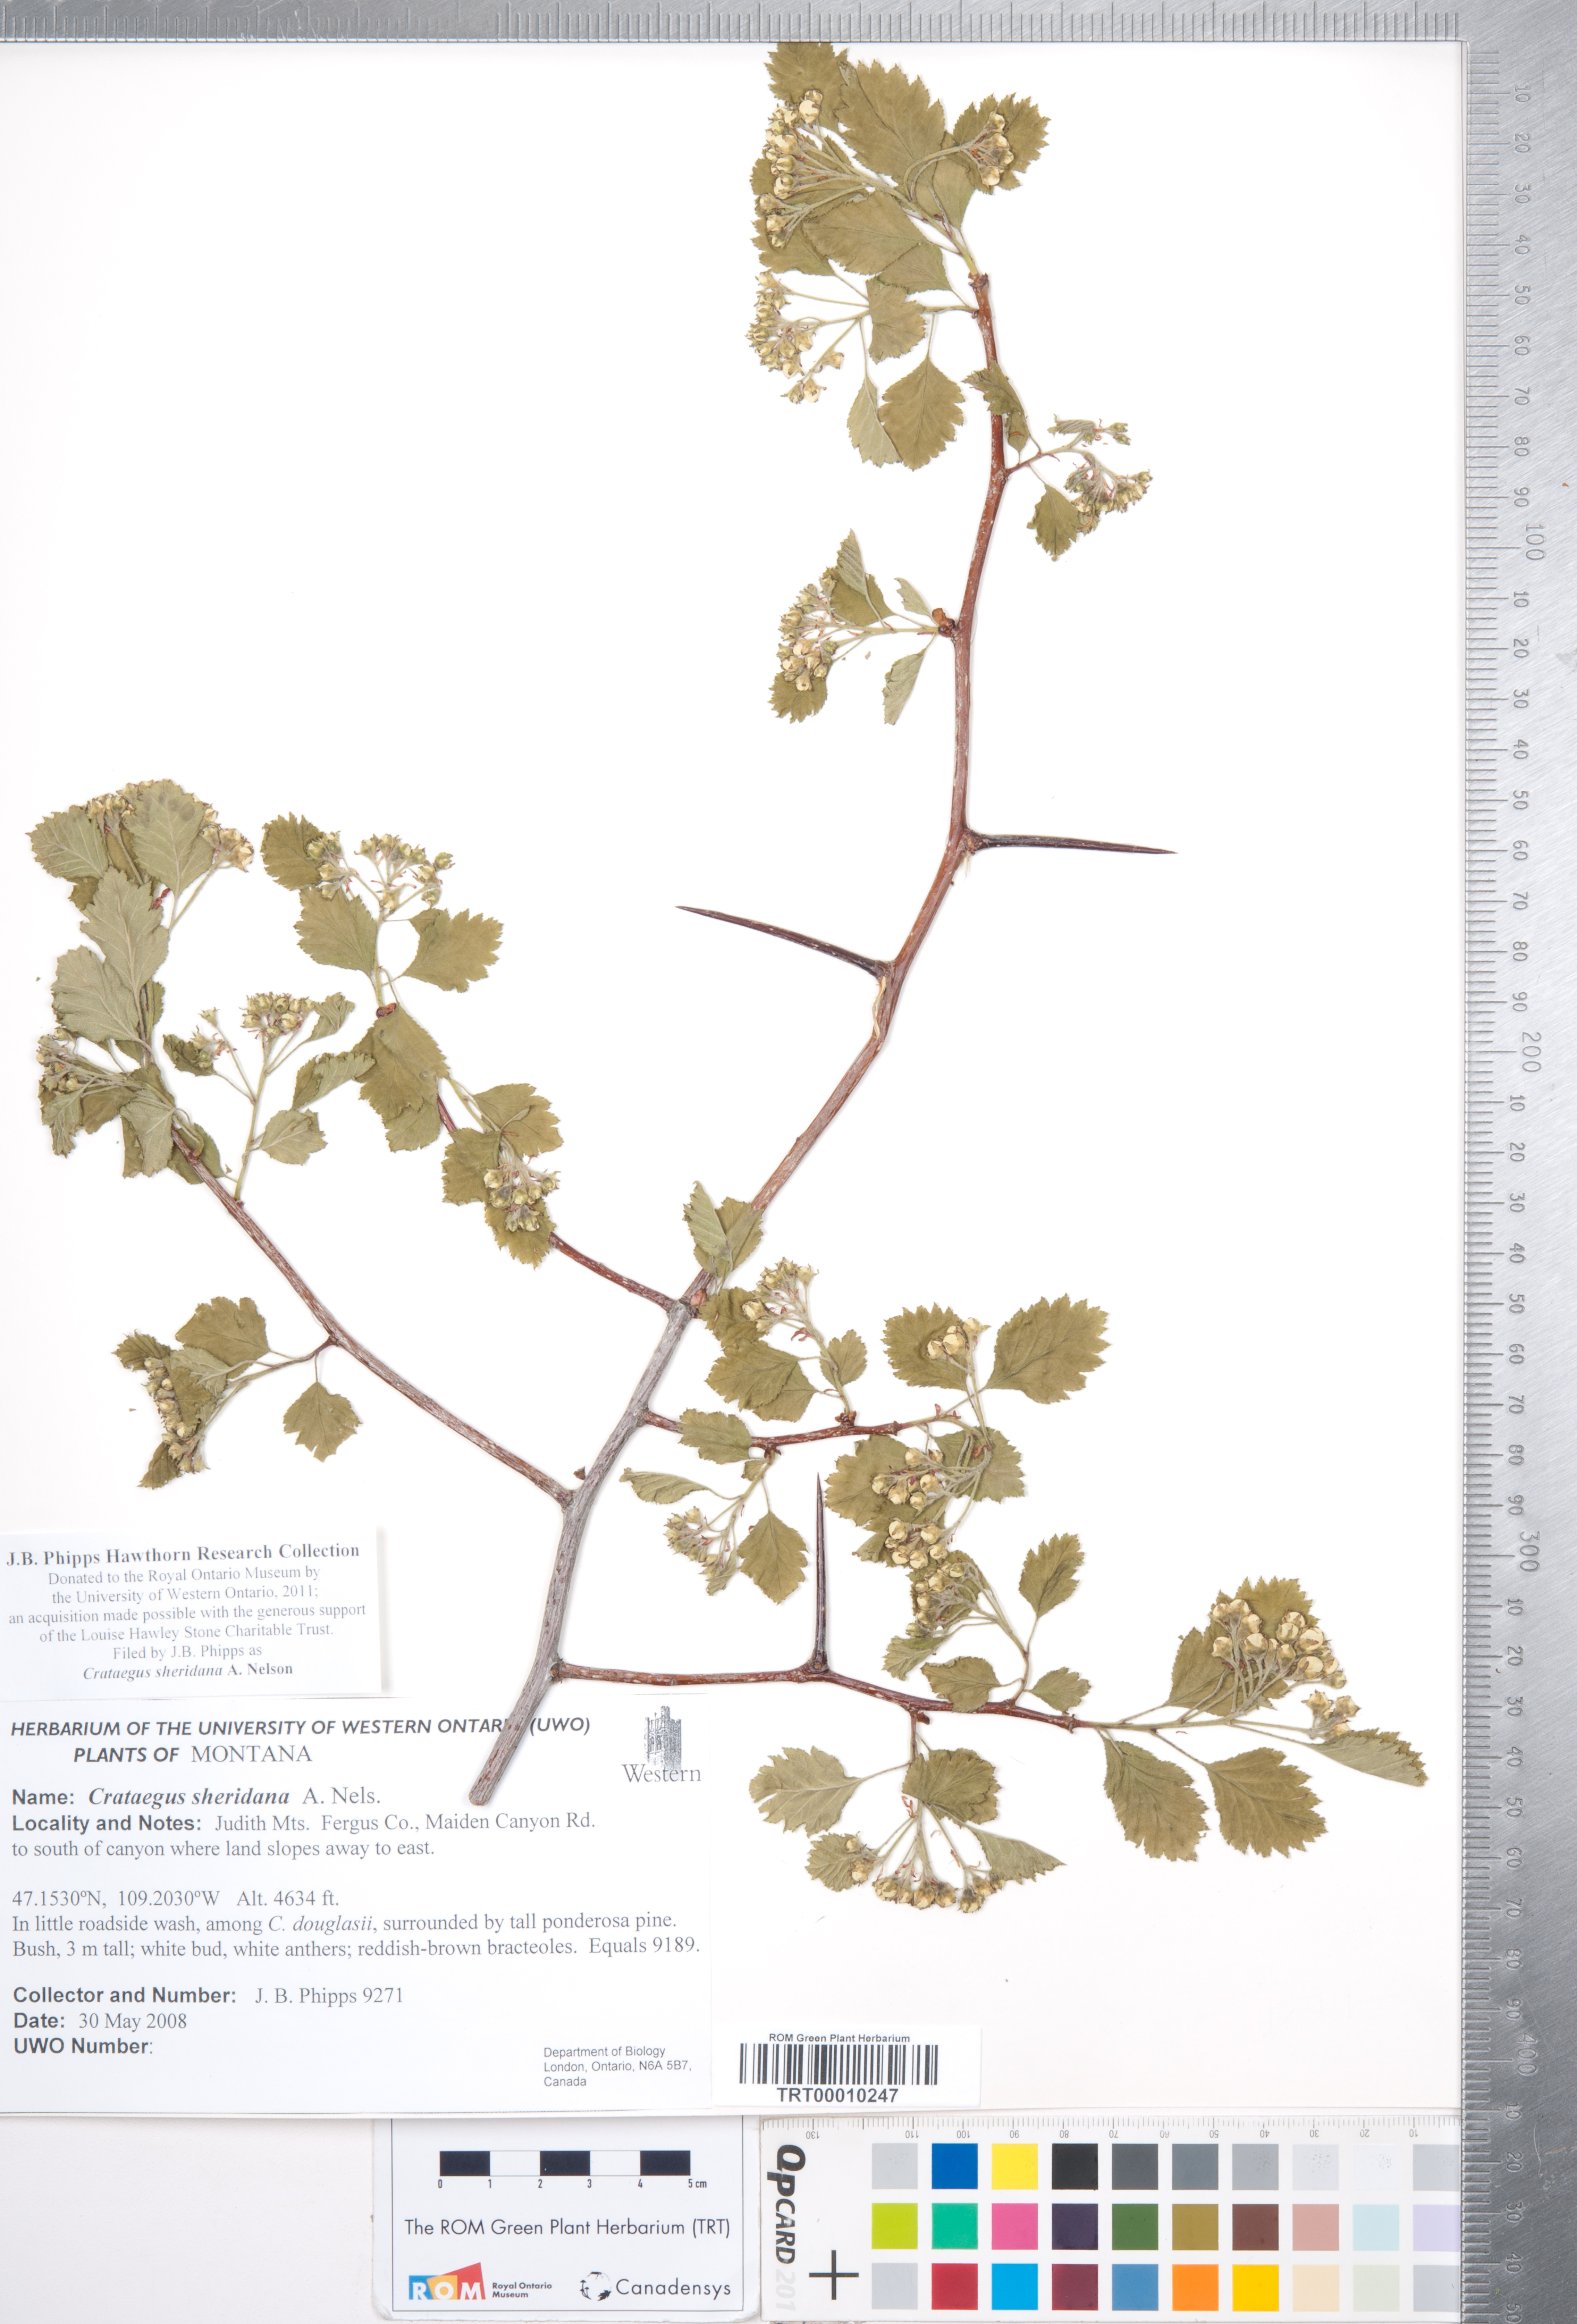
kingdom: Plantae
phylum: Tracheophyta
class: Magnoliopsida
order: Rosales
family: Rosaceae
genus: Crataegus
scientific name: Crataegus chrysocarpa
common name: Fire-berry hawthorn
